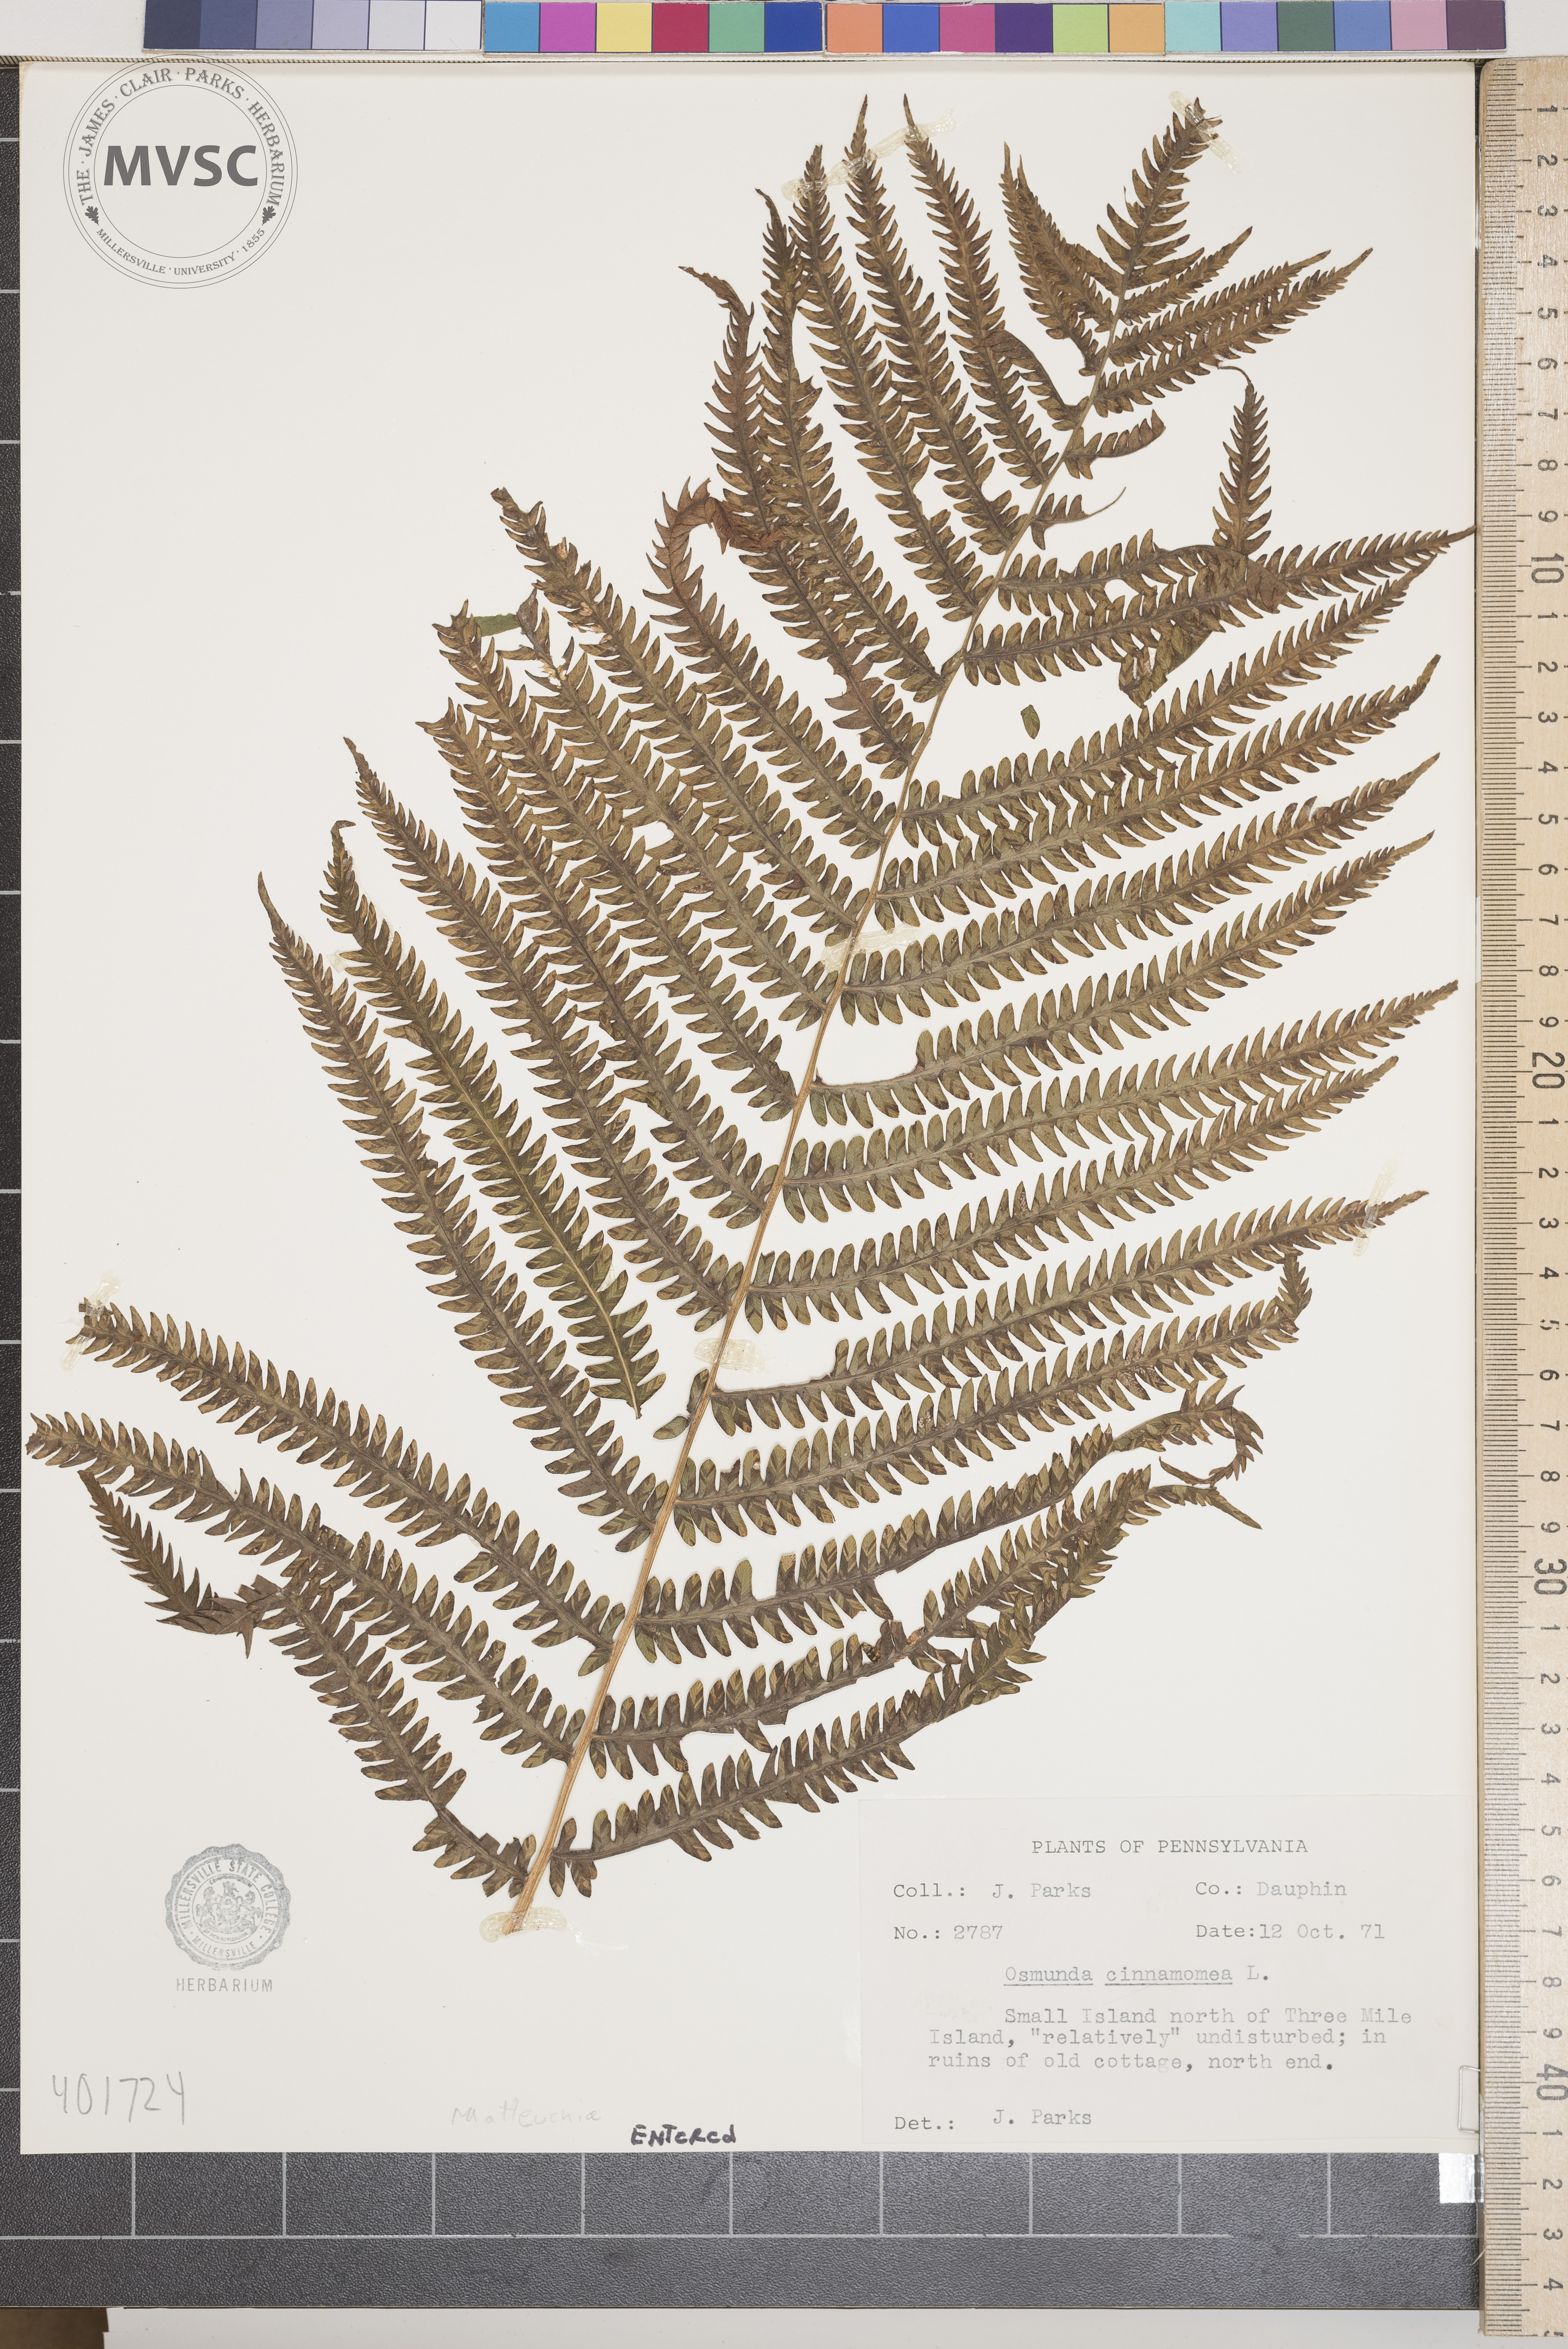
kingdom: Plantae
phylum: Tracheophyta
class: Polypodiopsida
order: Polypodiales
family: Onocleaceae
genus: Matteuccia
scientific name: Matteuccia struthiopteris
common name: ostrich fern
